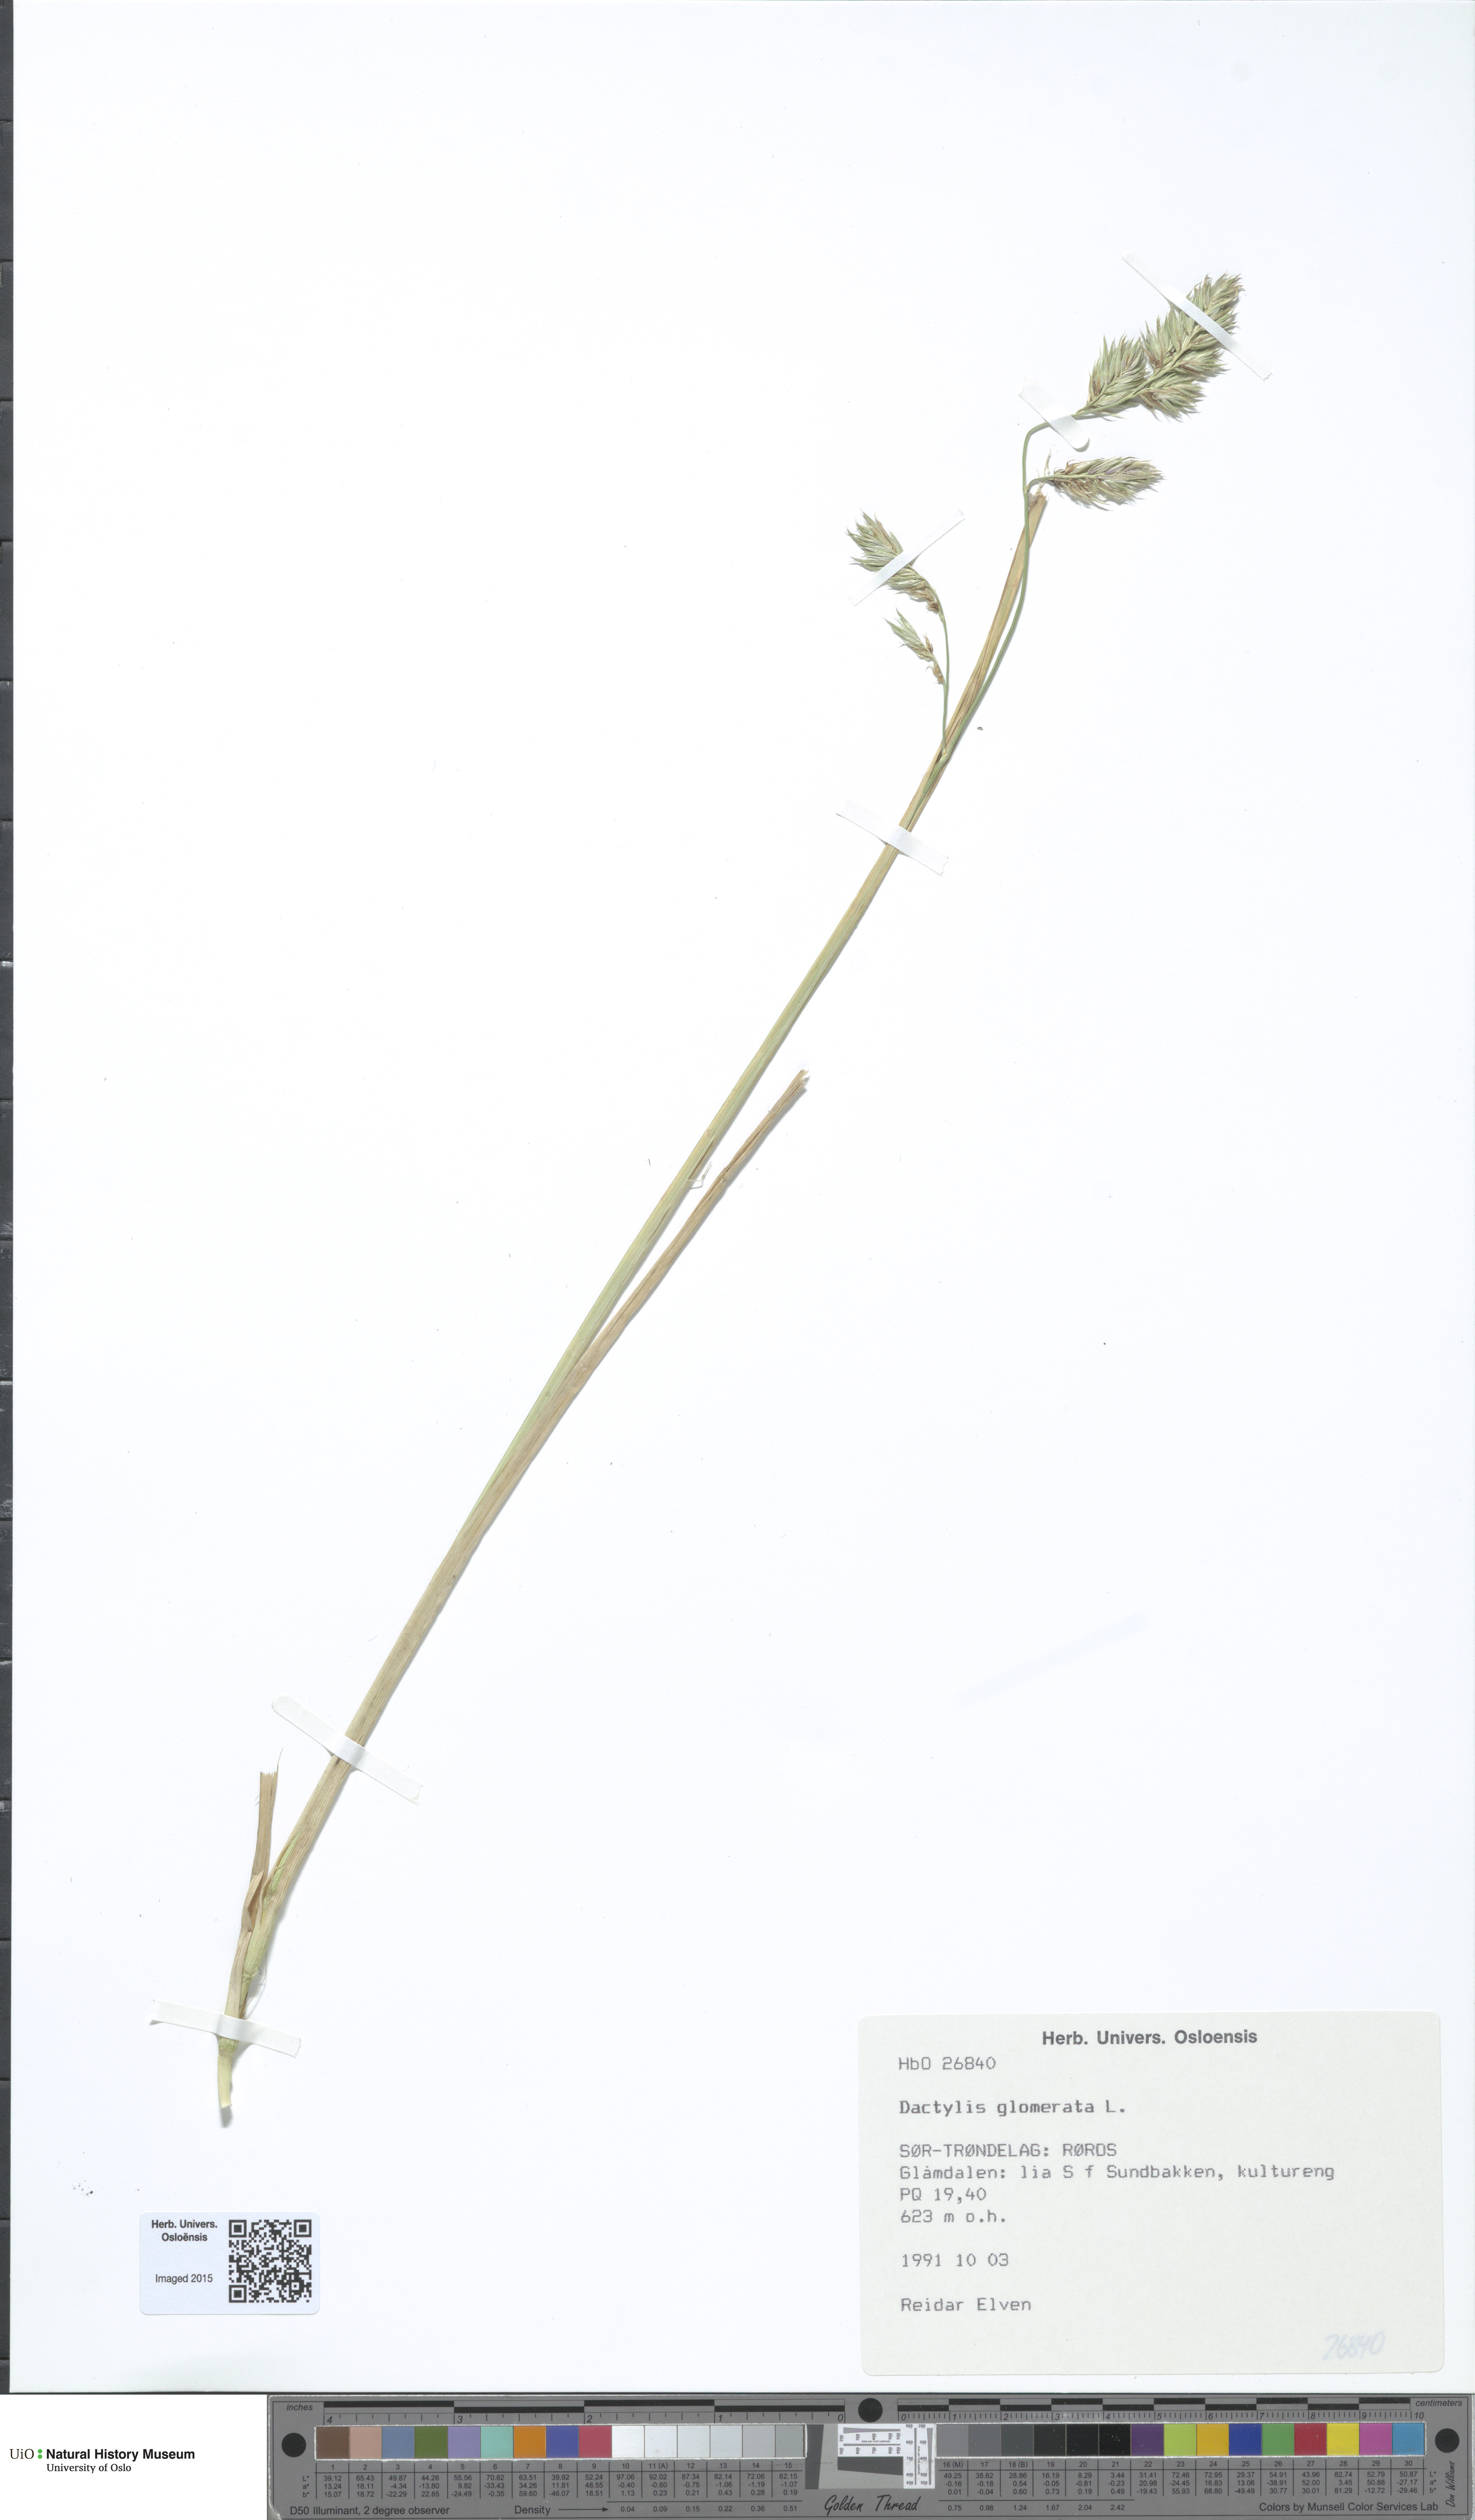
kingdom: Plantae
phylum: Tracheophyta
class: Liliopsida
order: Poales
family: Poaceae
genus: Dactylis
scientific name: Dactylis glomerata
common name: Orchardgrass
